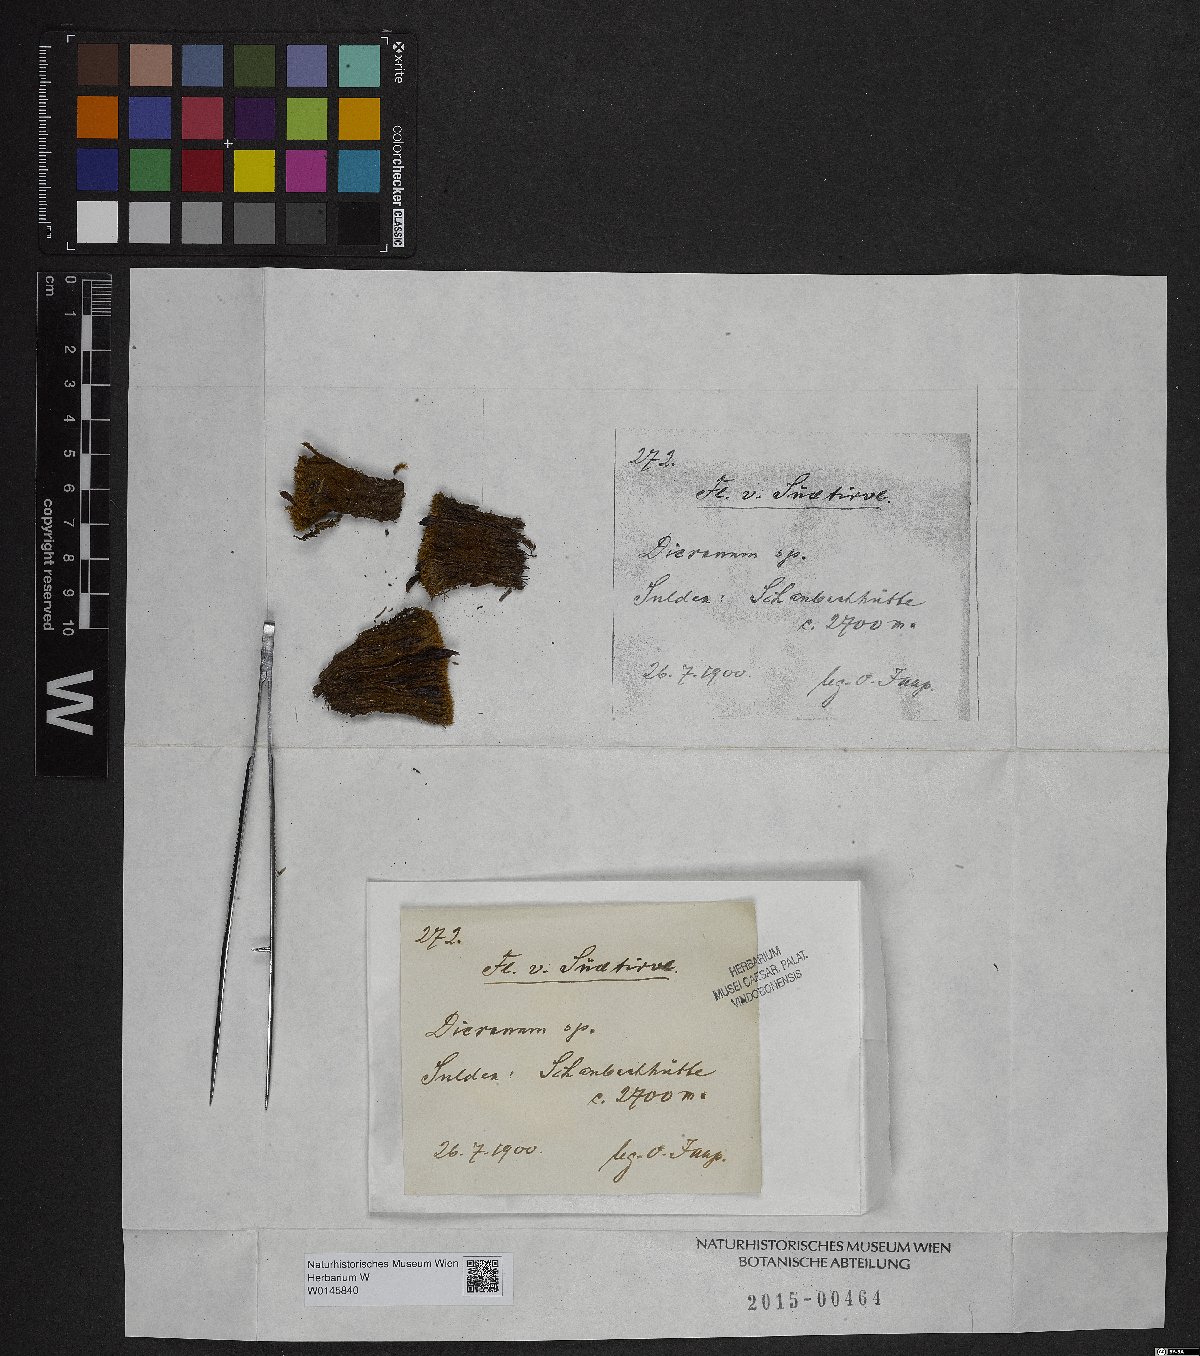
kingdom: Plantae
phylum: Bryophyta
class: Bryopsida
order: Dicranales
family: Dicranaceae
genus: Dicranum
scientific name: Dicranum
